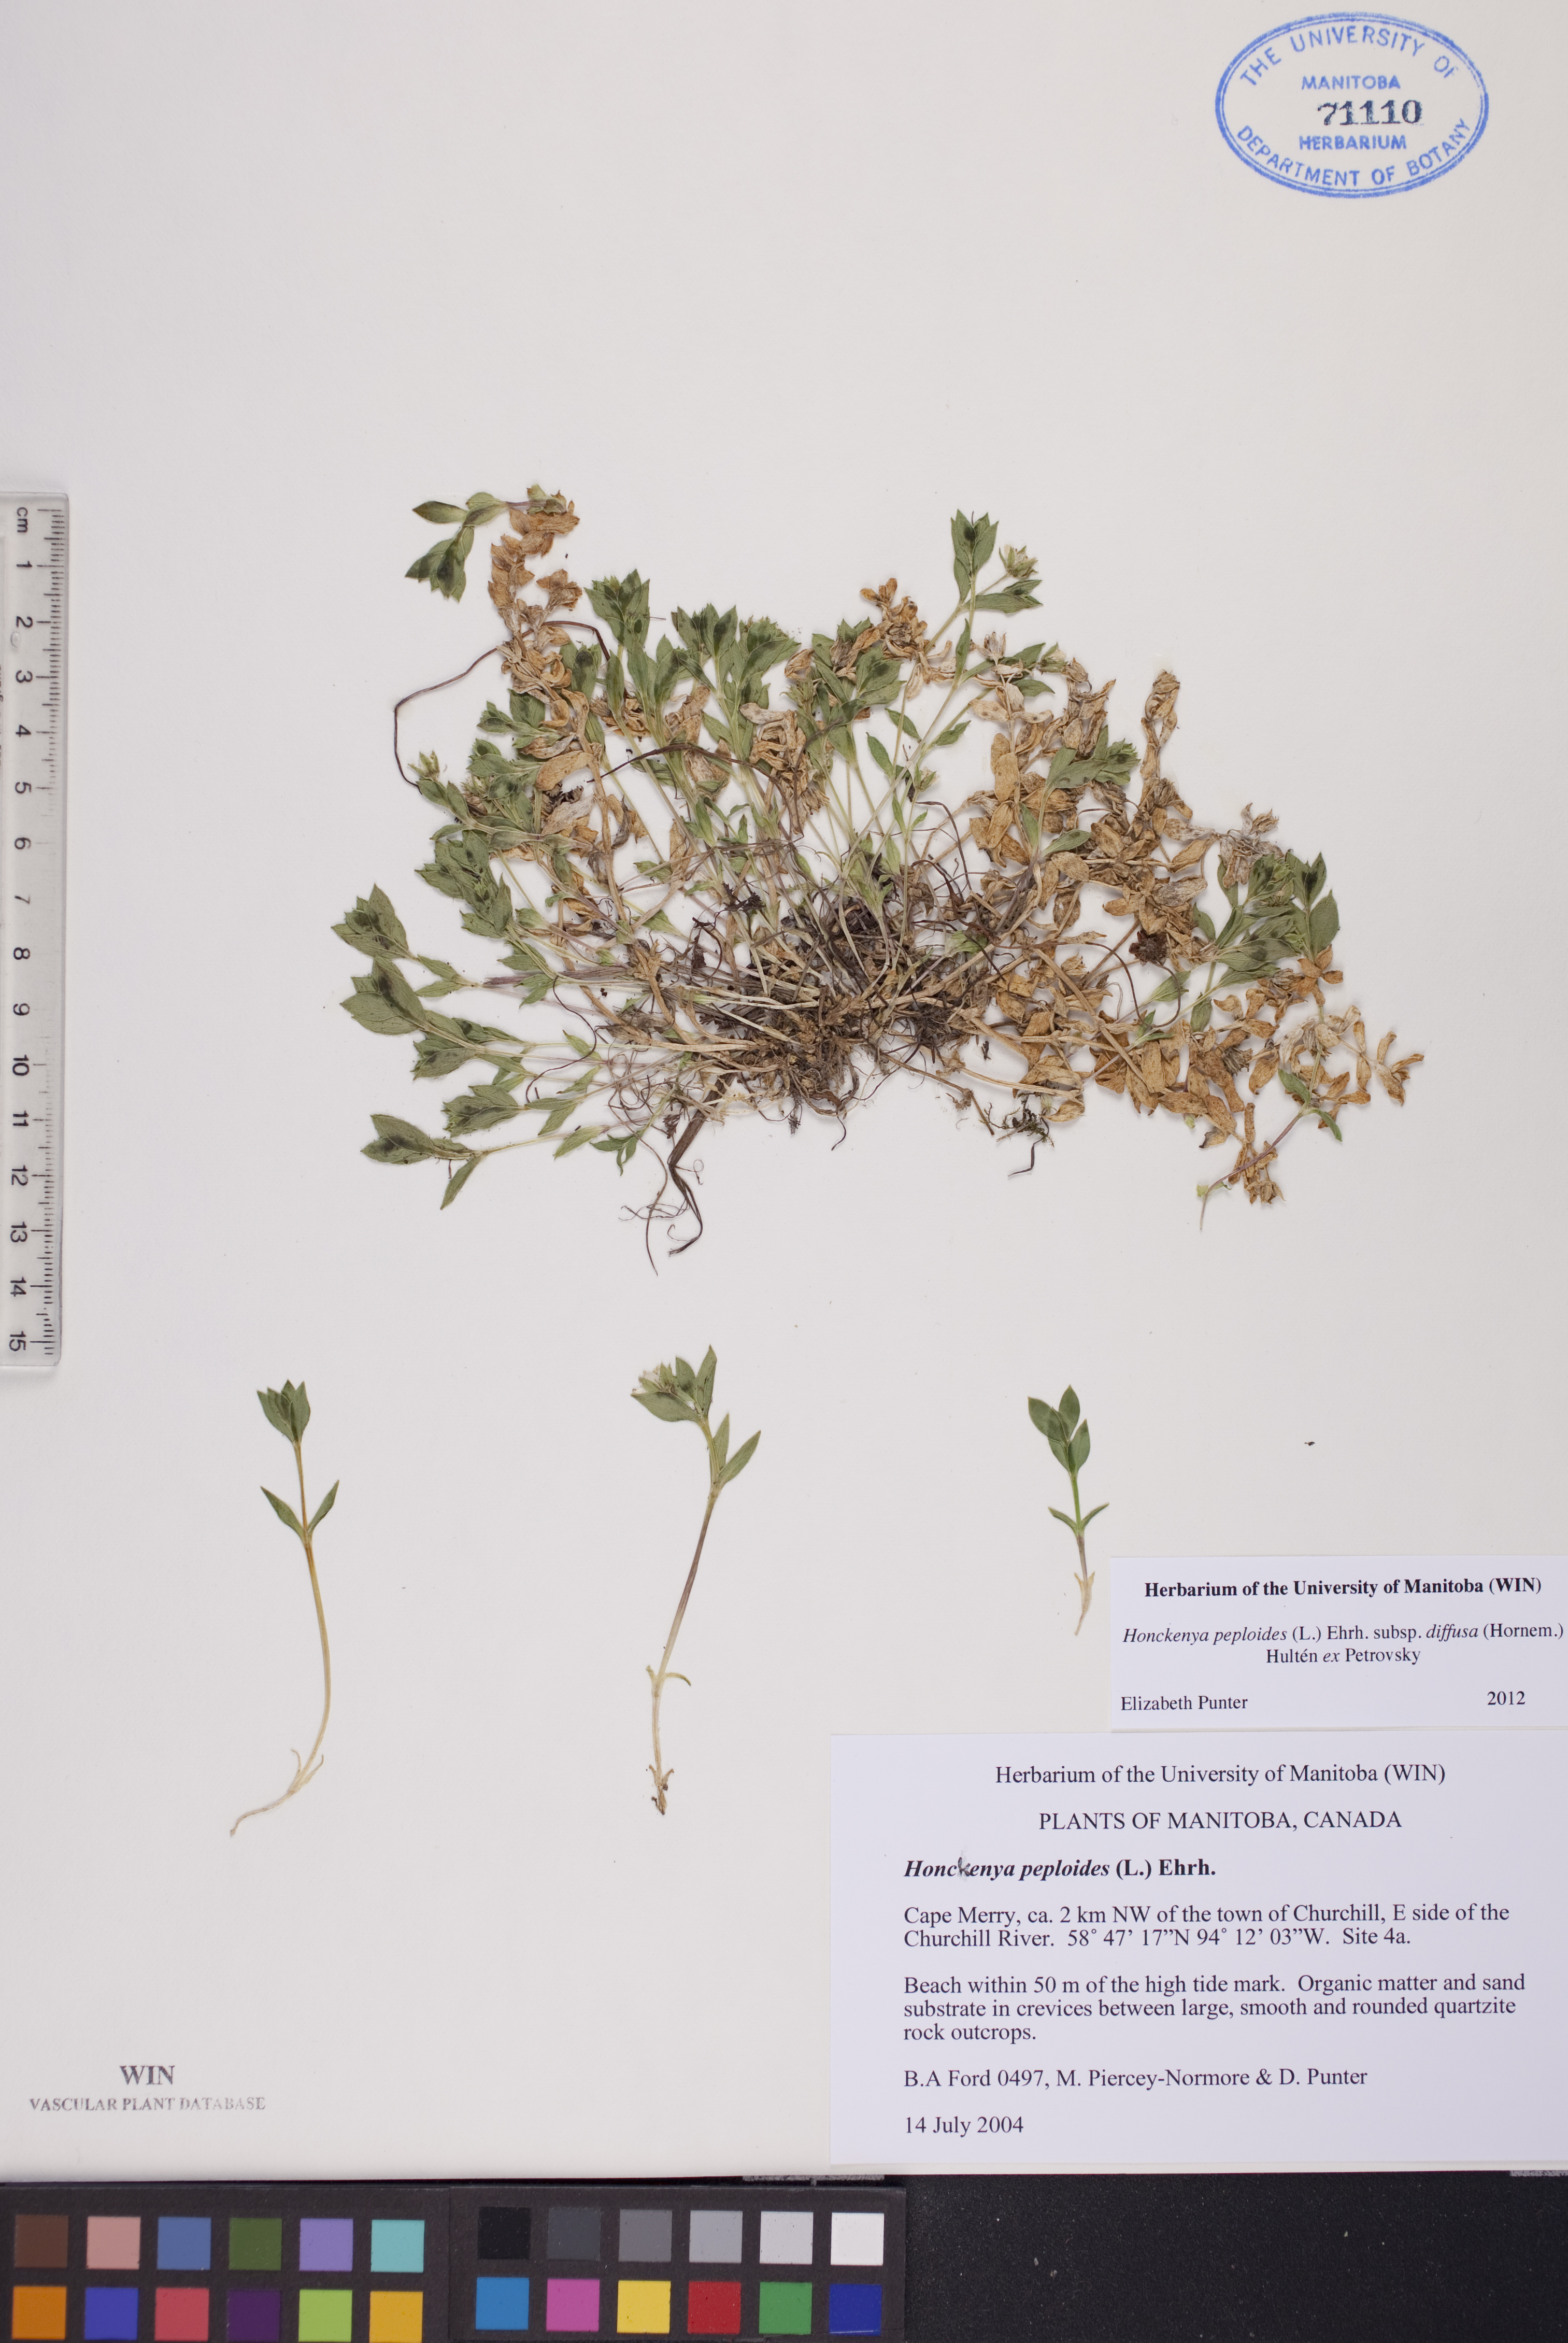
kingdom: Plantae
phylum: Tracheophyta
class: Magnoliopsida
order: Caryophyllales
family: Caryophyllaceae
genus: Honckenya
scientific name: Honckenya peploides
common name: Sea sandwort
